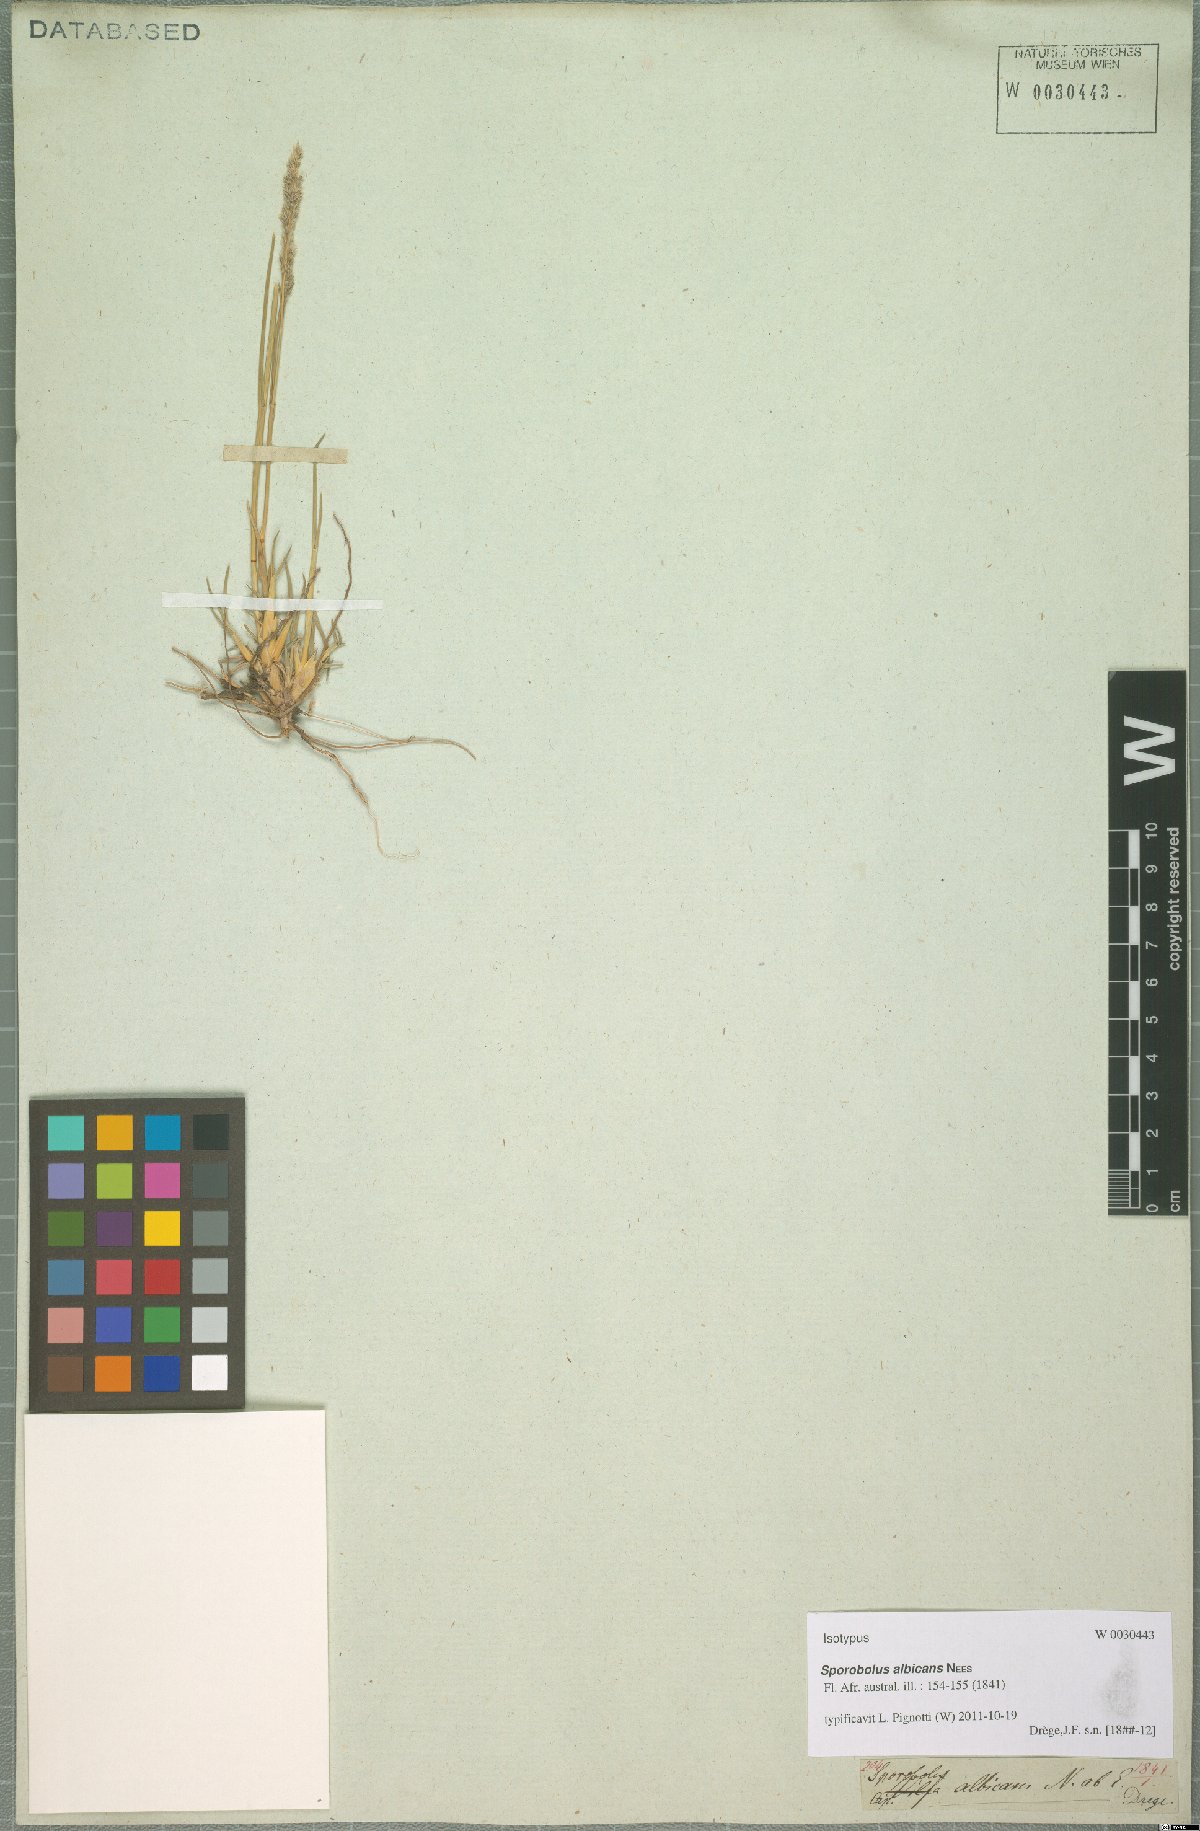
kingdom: Plantae
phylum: Tracheophyta
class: Liliopsida
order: Poales
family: Poaceae
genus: Sporobolus
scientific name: Sporobolus albicans
